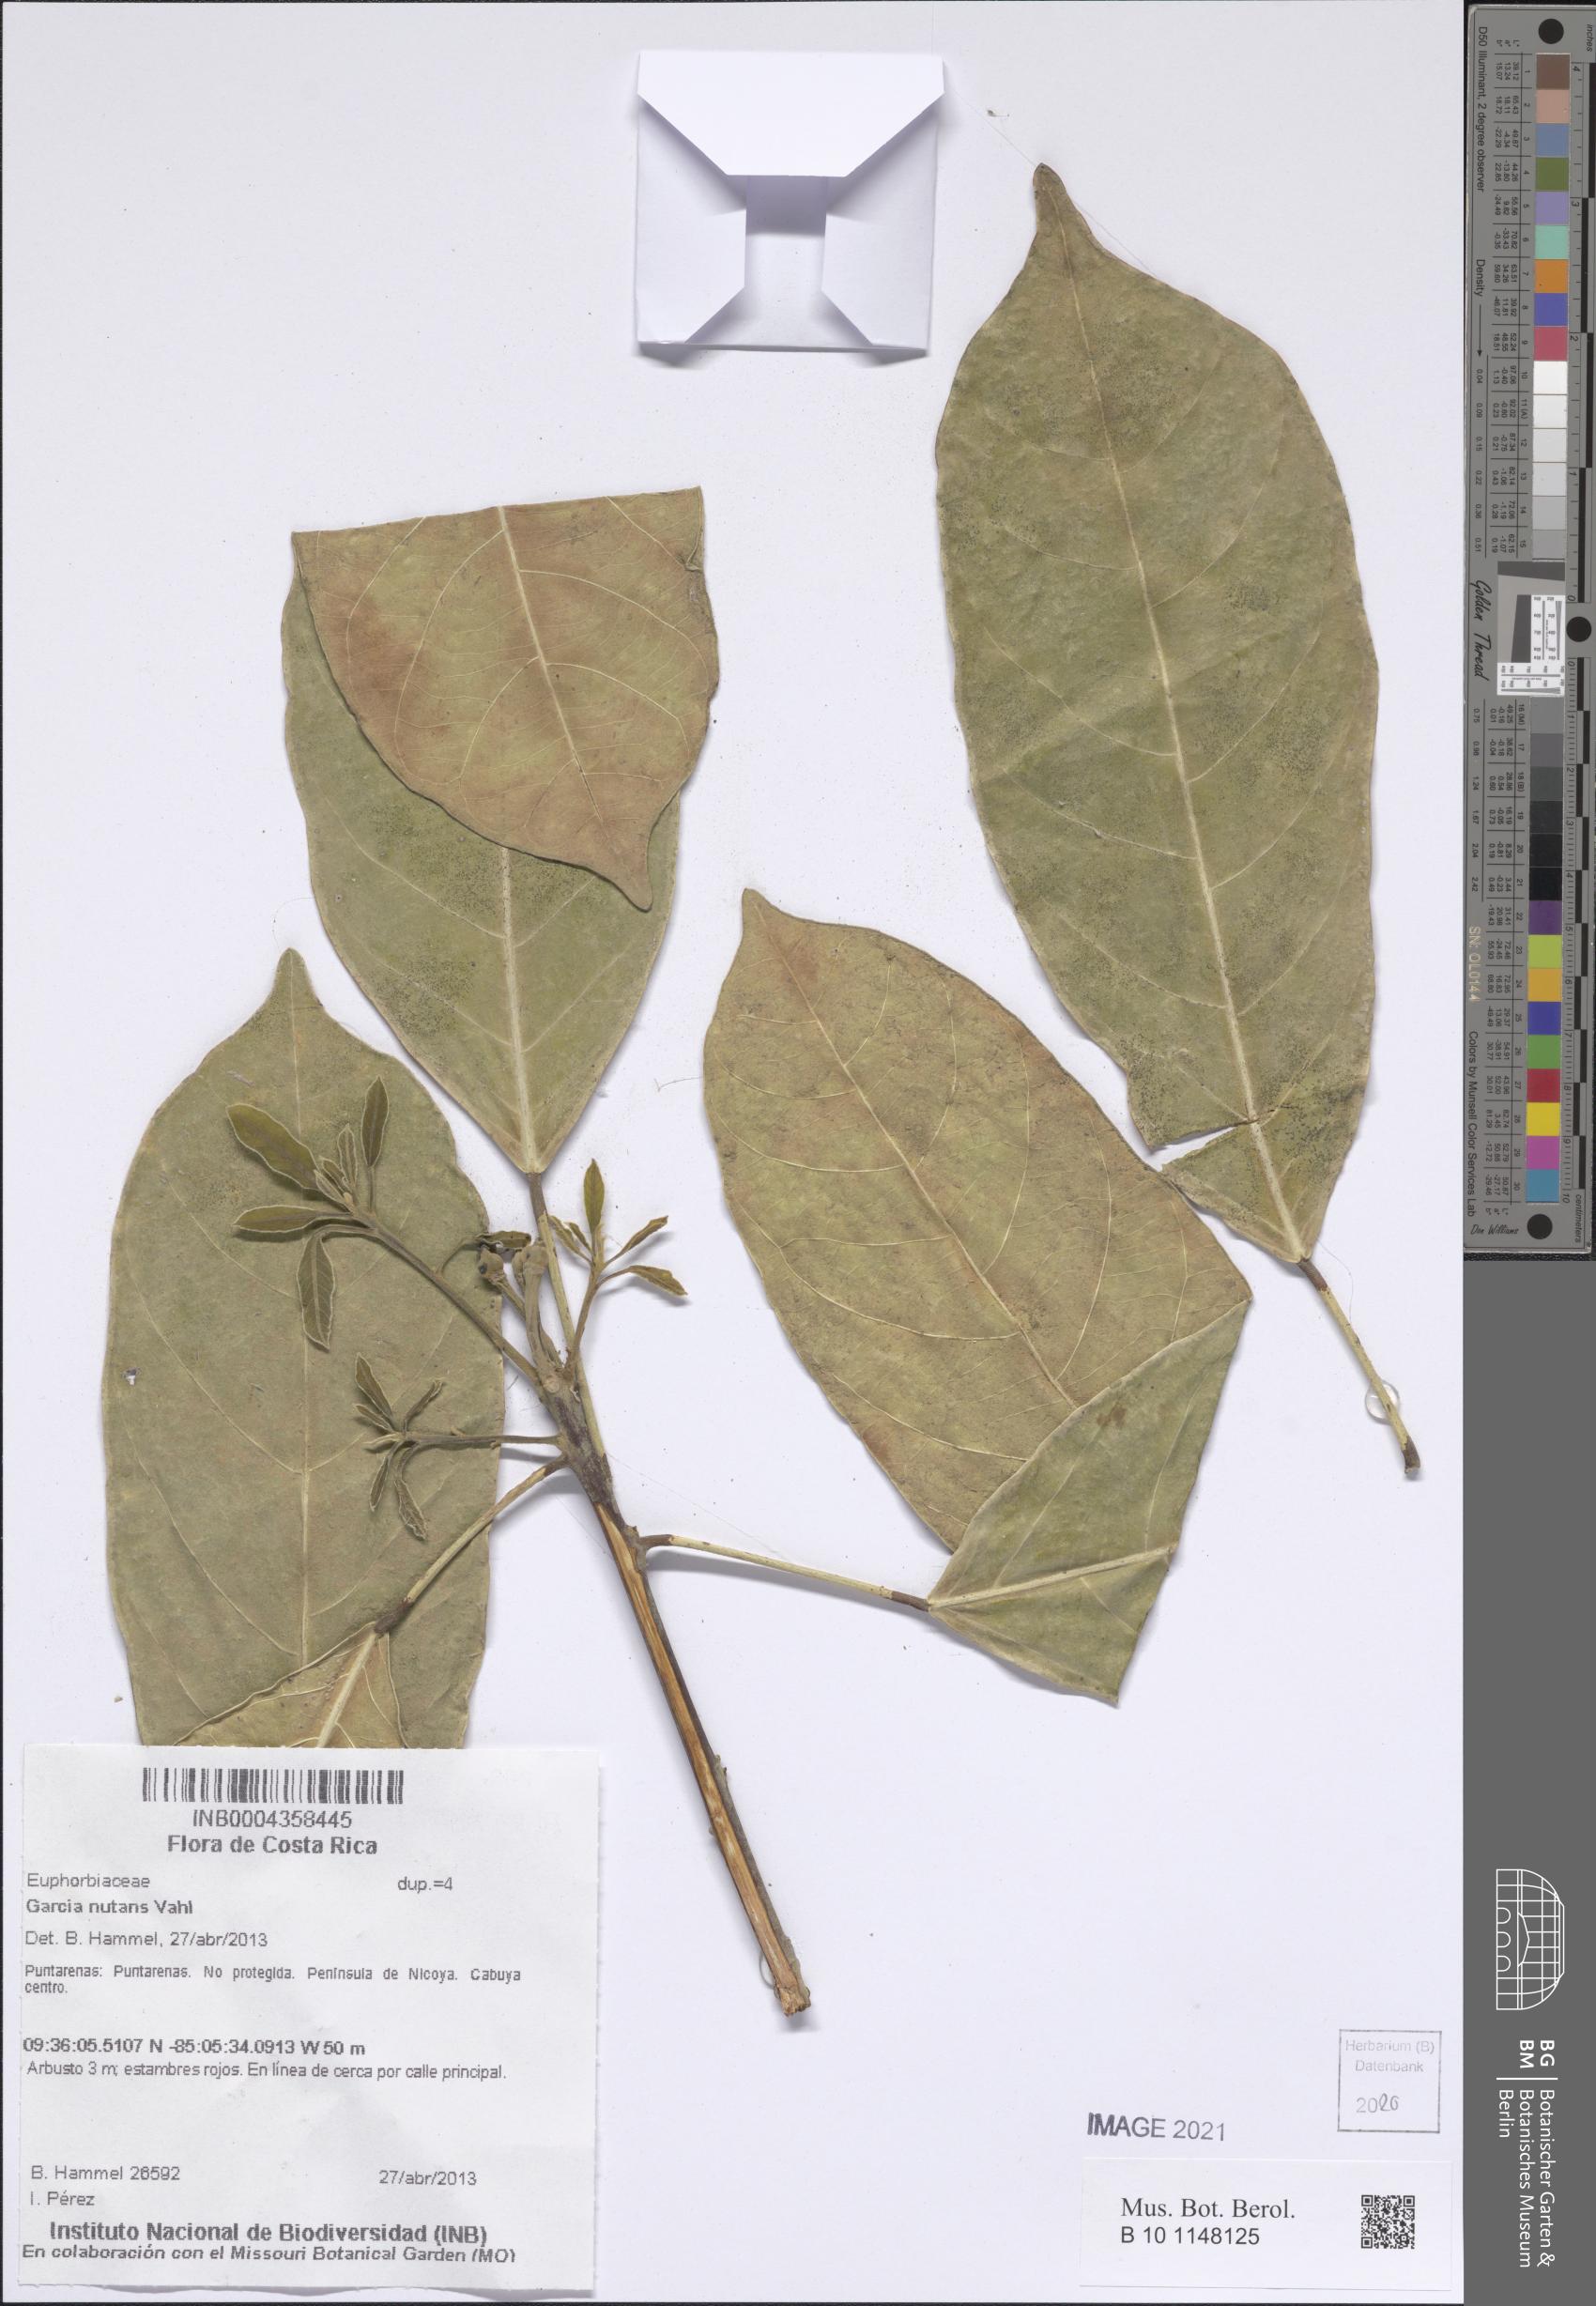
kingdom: Plantae
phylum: Tracheophyta
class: Magnoliopsida
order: Malpighiales
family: Euphorbiaceae
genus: Garcia
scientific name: Garcia nutans
